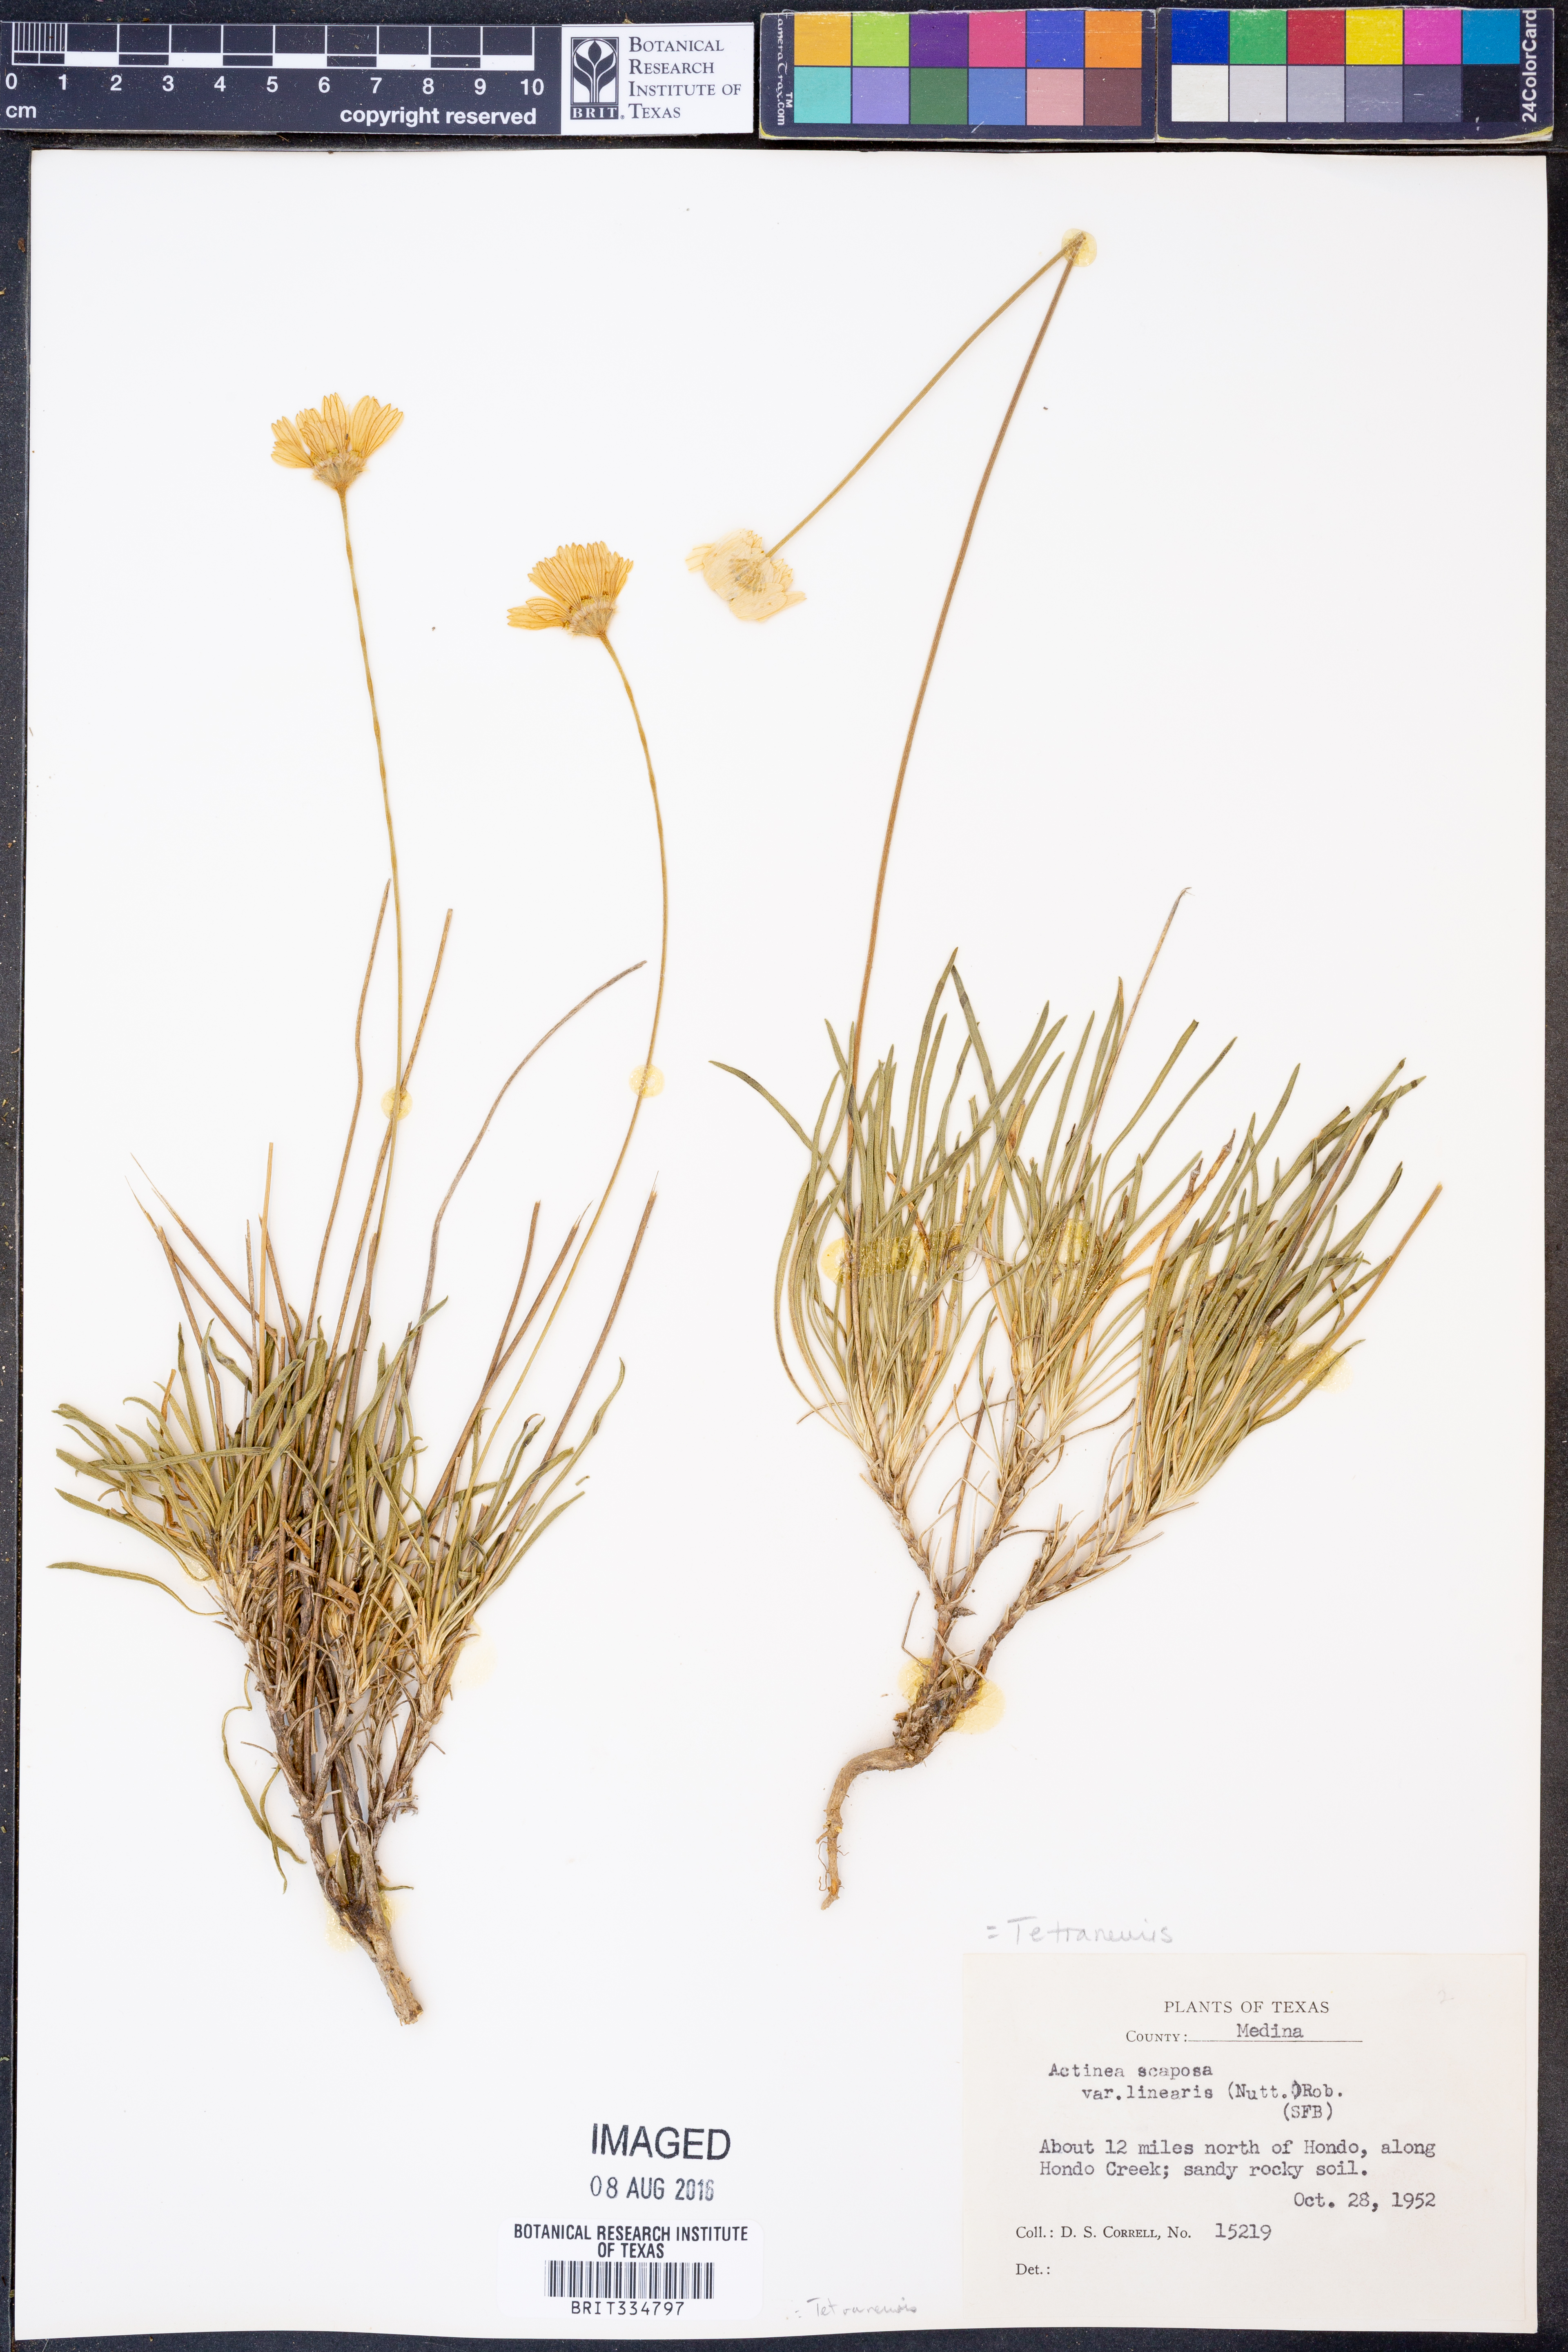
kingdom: Plantae
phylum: Tracheophyta
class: Magnoliopsida
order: Asterales
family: Asteraceae
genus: Tetraneuris
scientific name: Tetraneuris scaposa
